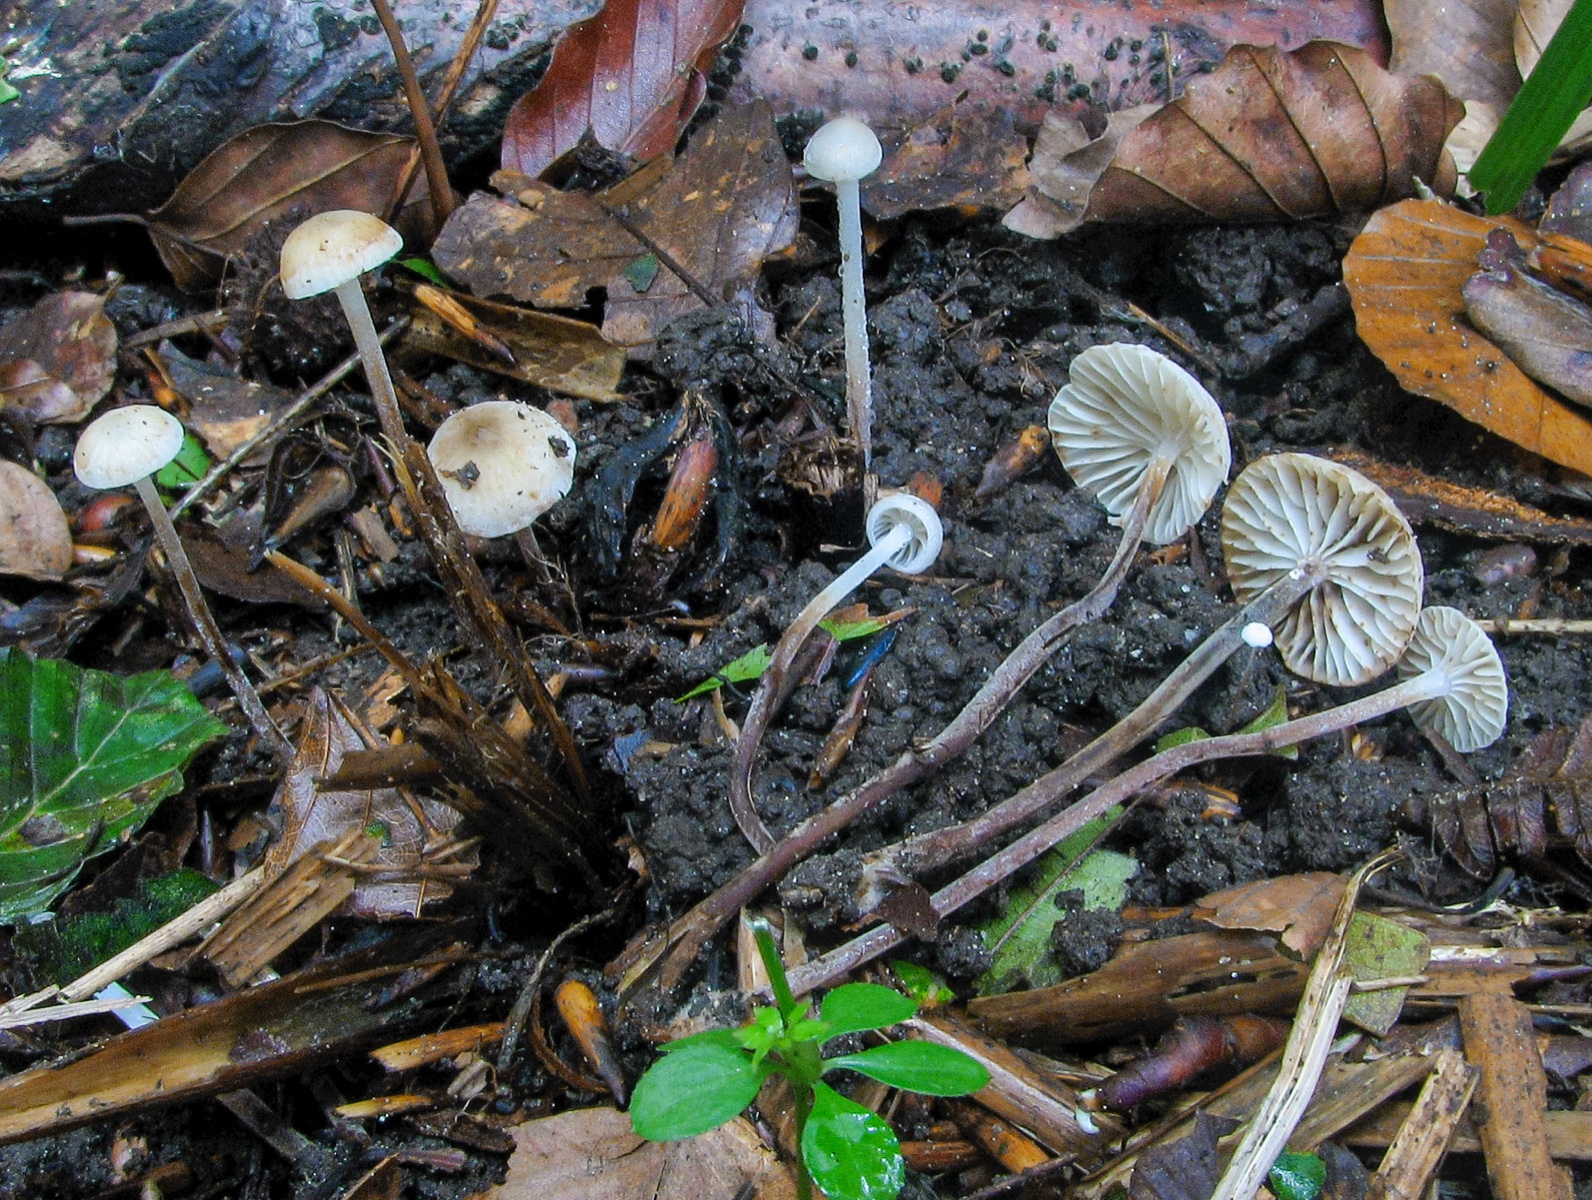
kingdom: Fungi
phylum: Basidiomycota
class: Agaricomycetes
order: Agaricales
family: Physalacriaceae
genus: Rhizomarasmius
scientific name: Rhizomarasmius undatus
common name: ørnebregne-bruskhat
